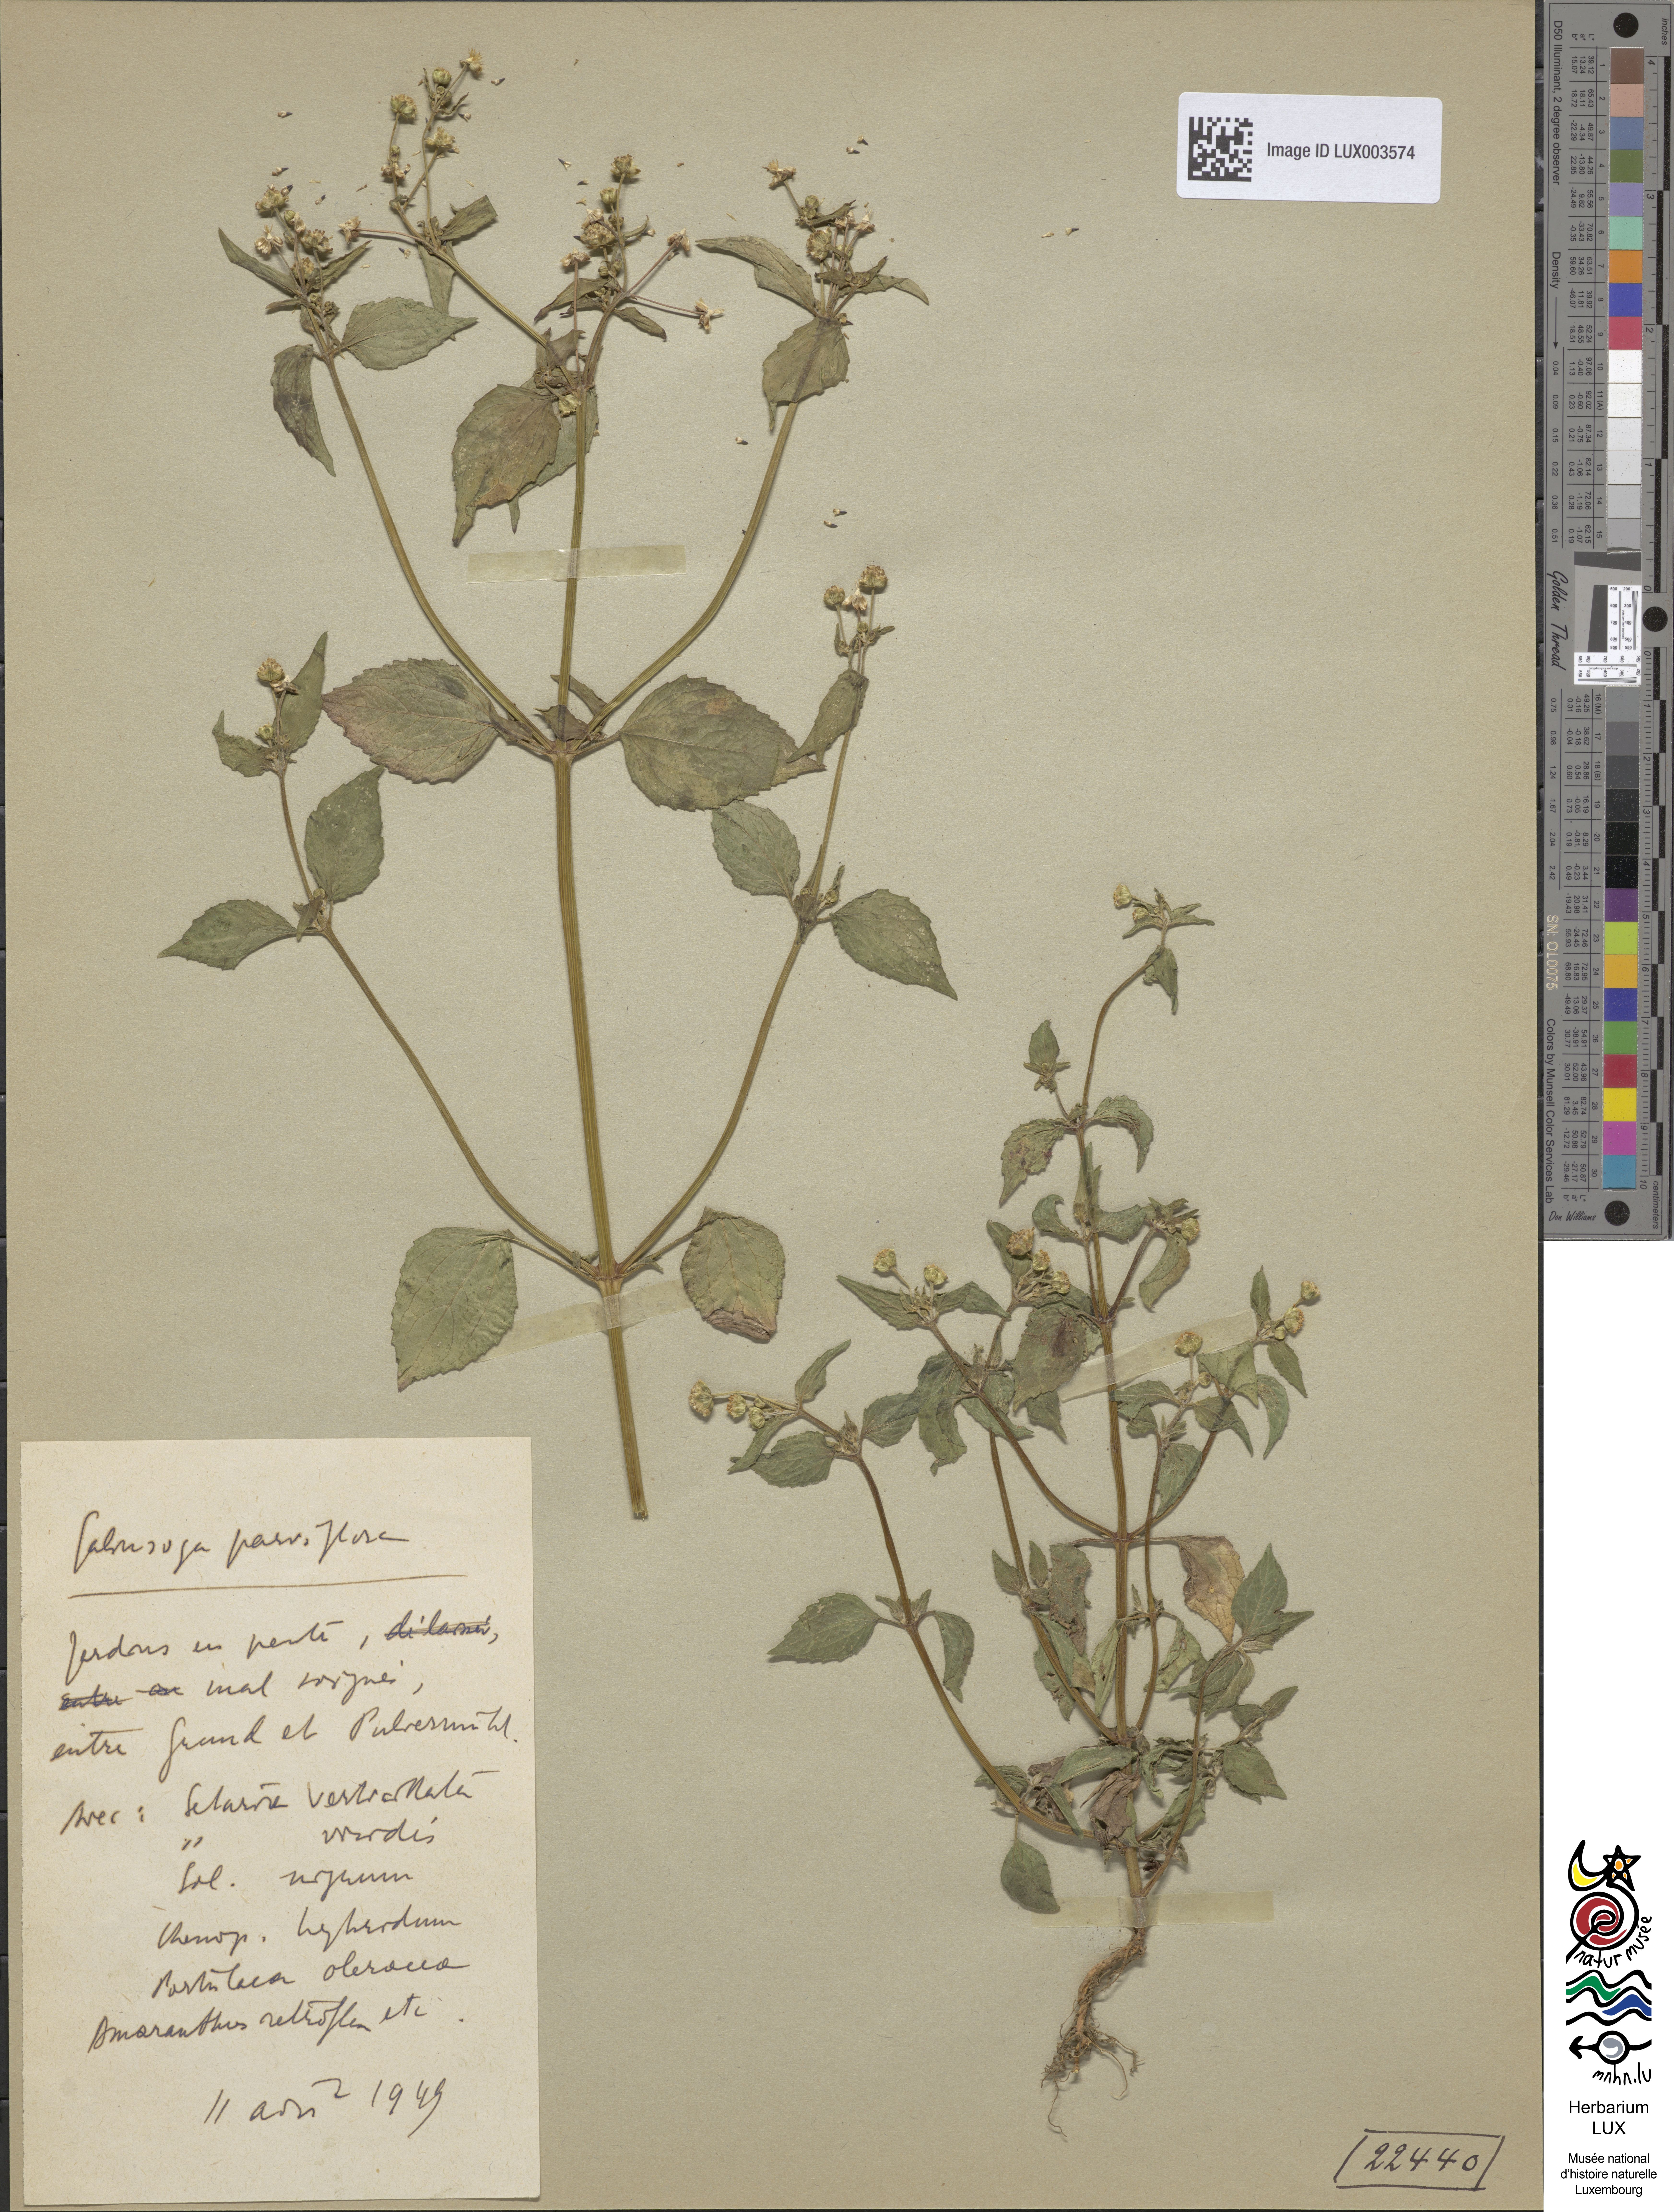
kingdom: Plantae
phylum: Tracheophyta
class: Magnoliopsida
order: Asterales
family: Asteraceae
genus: Galinsoga
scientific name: Galinsoga parviflora
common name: Gallant soldier
